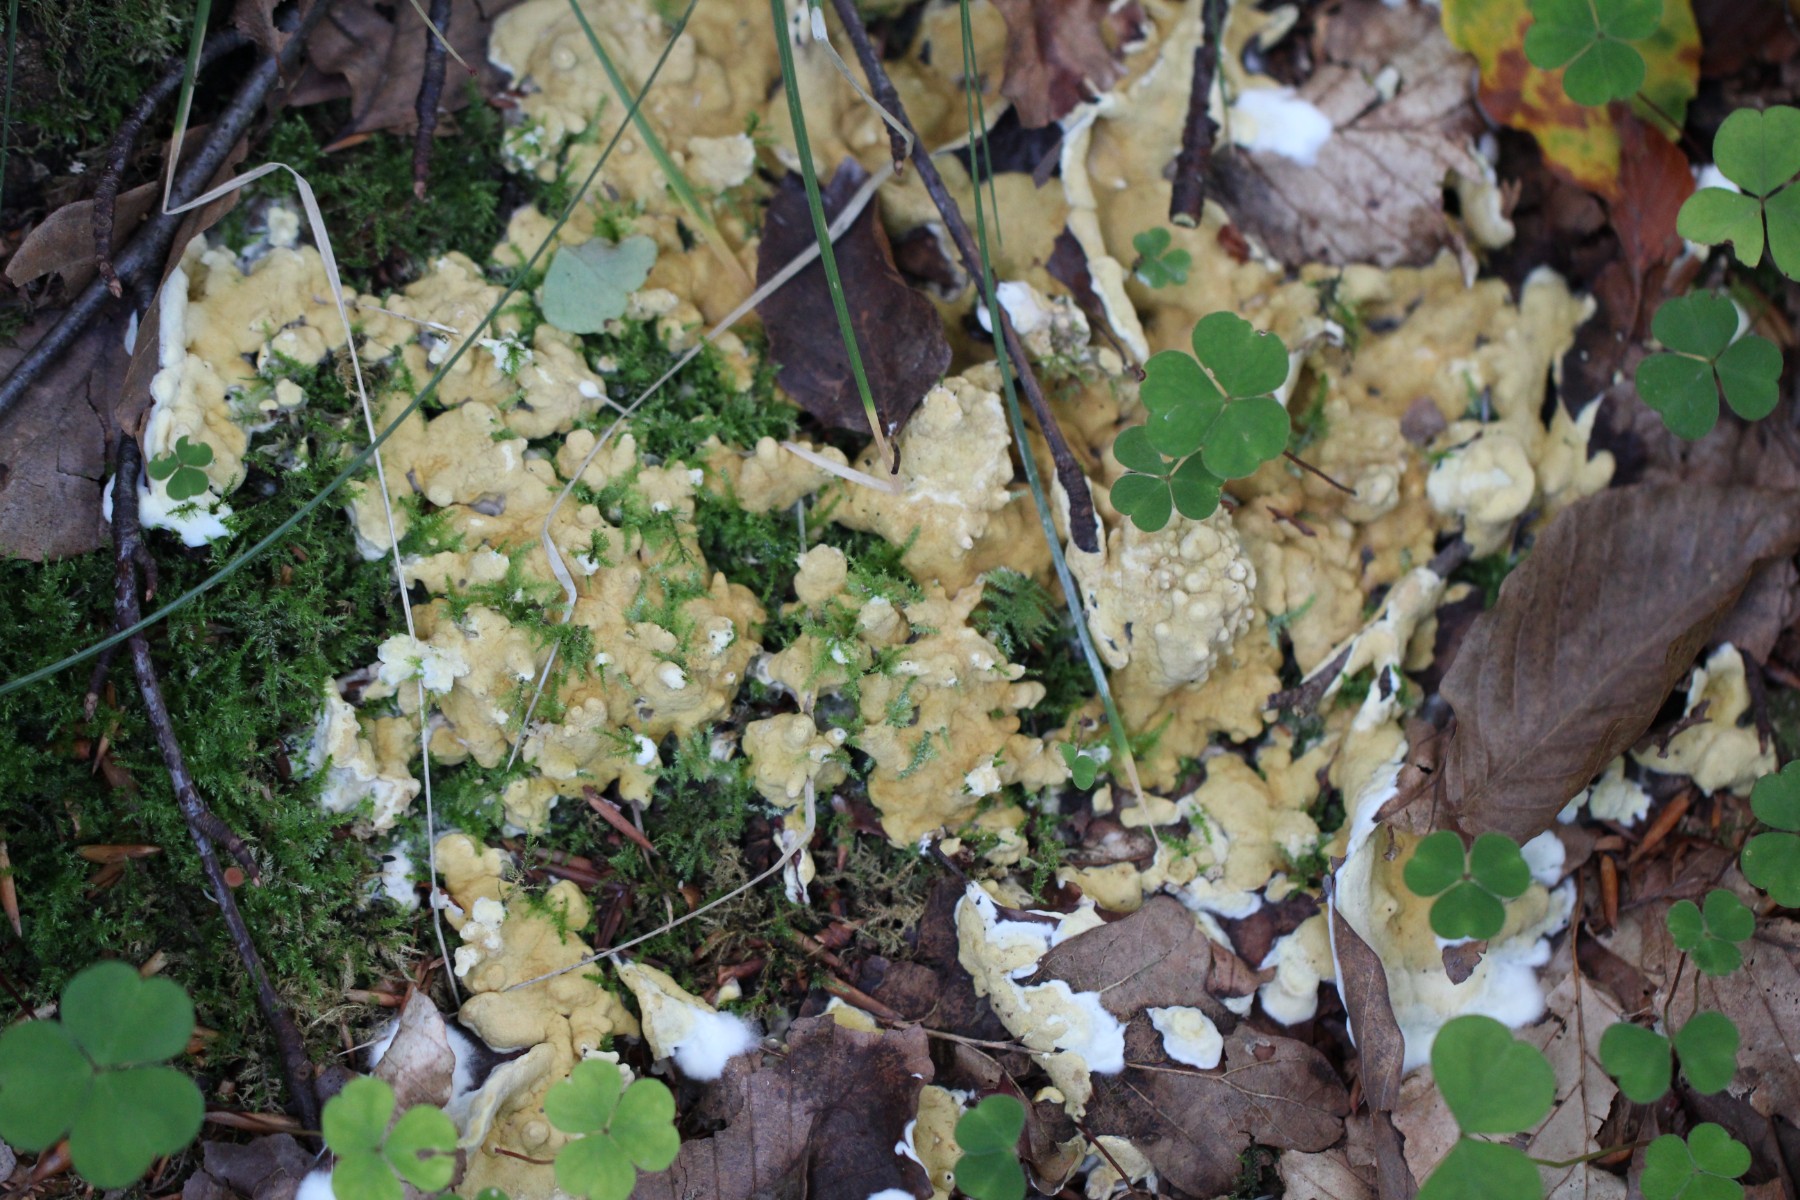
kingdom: Fungi
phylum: Ascomycota
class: Sordariomycetes
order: Hypocreales
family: Hypocreaceae
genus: Trichoderma
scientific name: Trichoderma citrinum
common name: udbredt kødkerne
